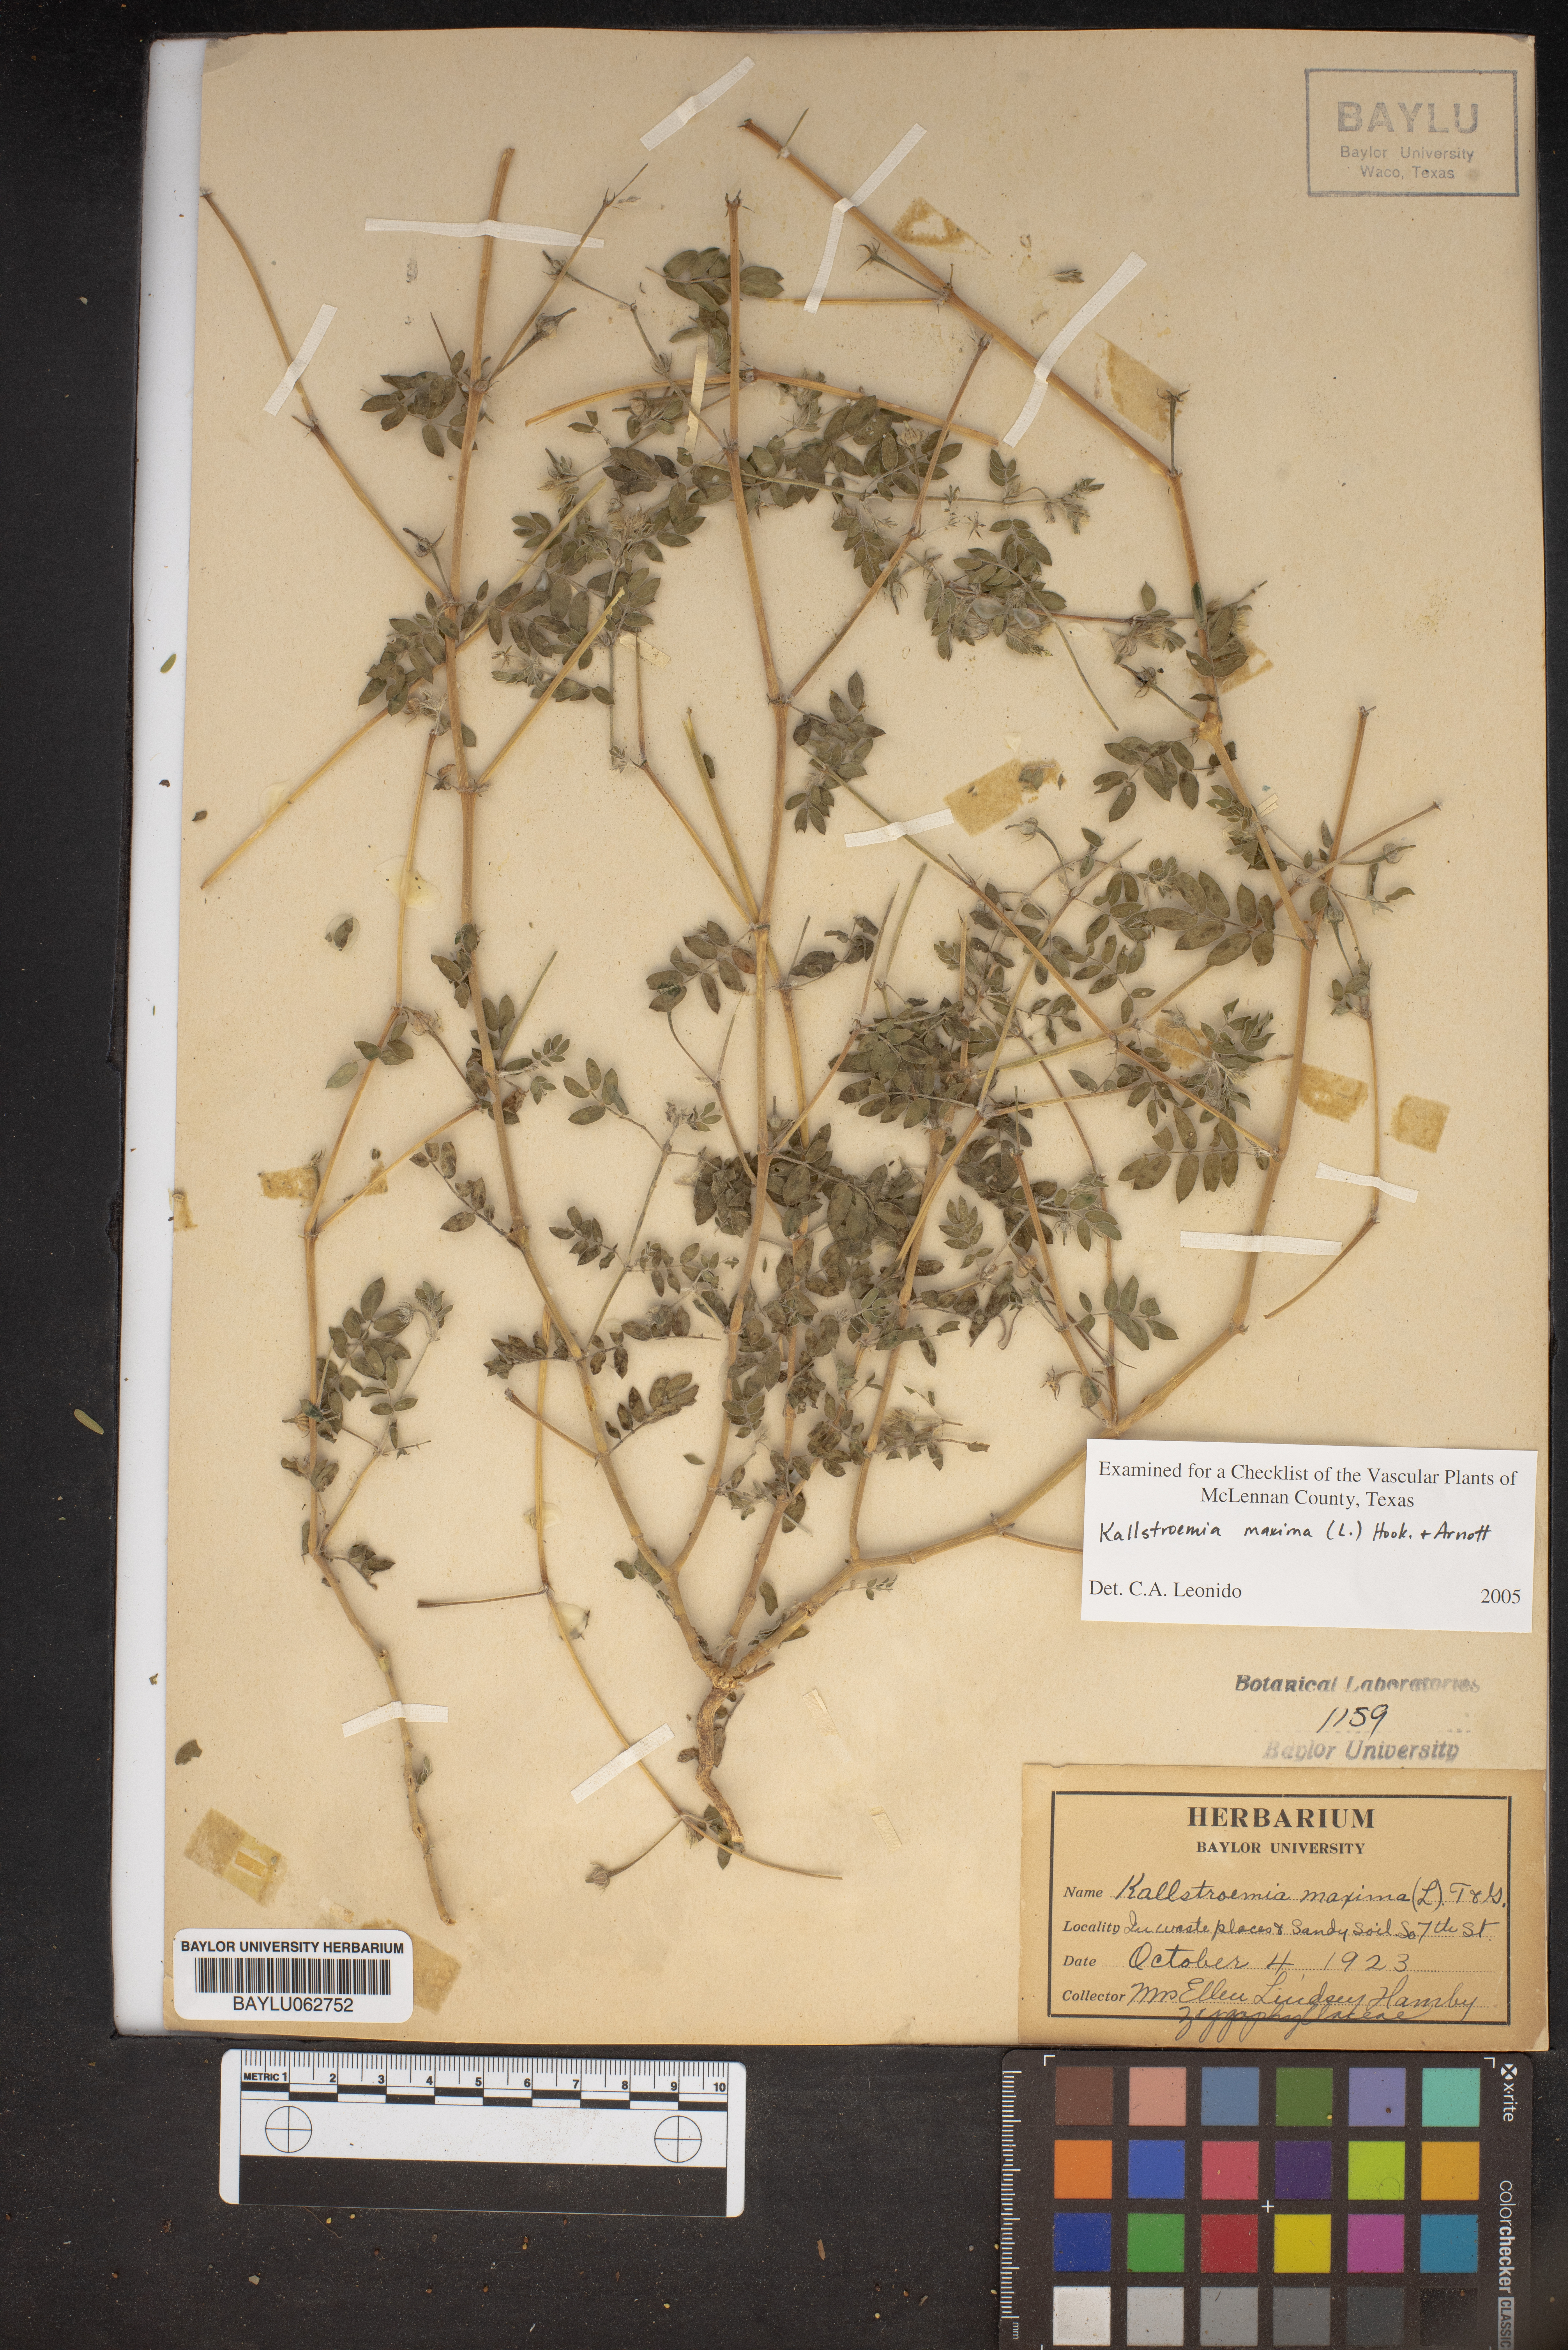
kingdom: Plantae
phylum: Tracheophyta
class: Magnoliopsida
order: Zygophyllales
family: Zygophyllaceae
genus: Kallstroemia
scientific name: Kallstroemia maxima
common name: Big caltropa
